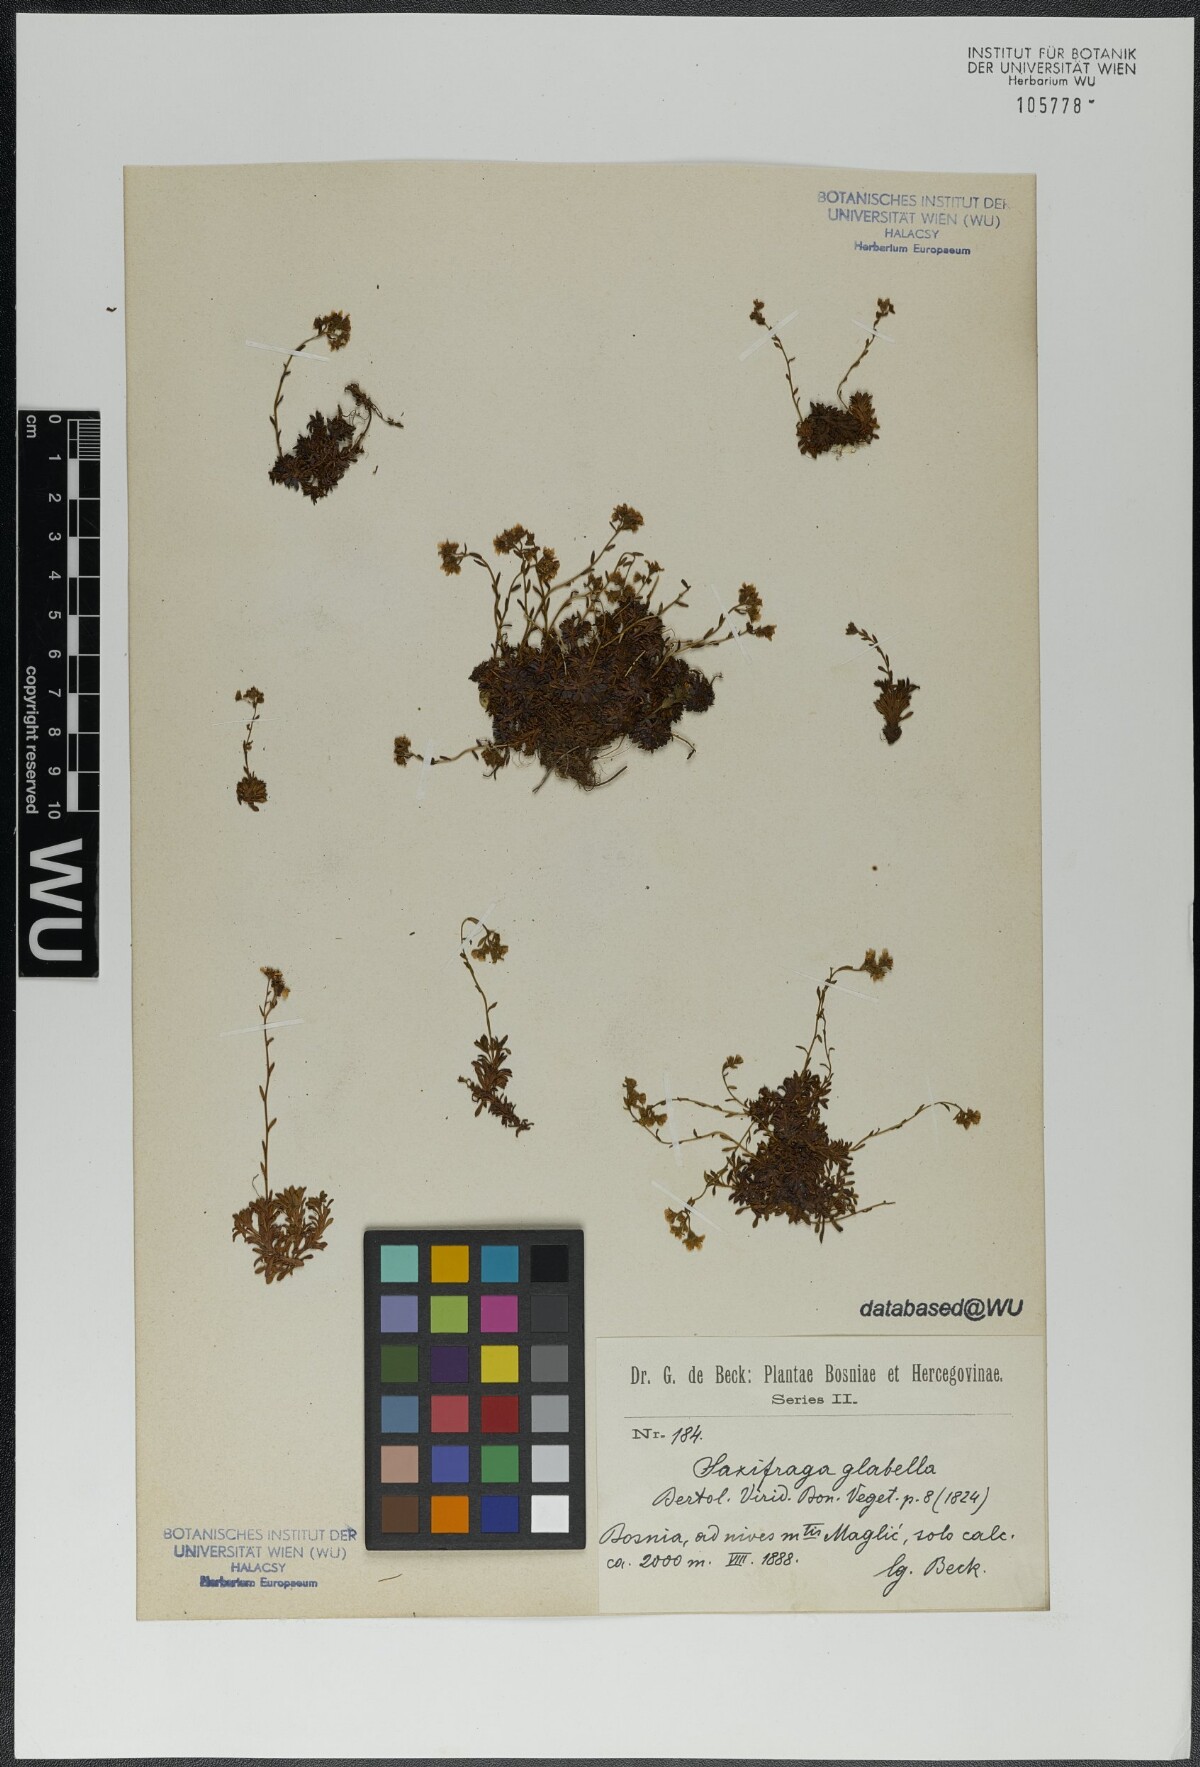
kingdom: Plantae
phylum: Tracheophyta
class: Magnoliopsida
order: Saxifragales
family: Saxifragaceae
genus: Saxifraga
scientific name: Saxifraga glabella
